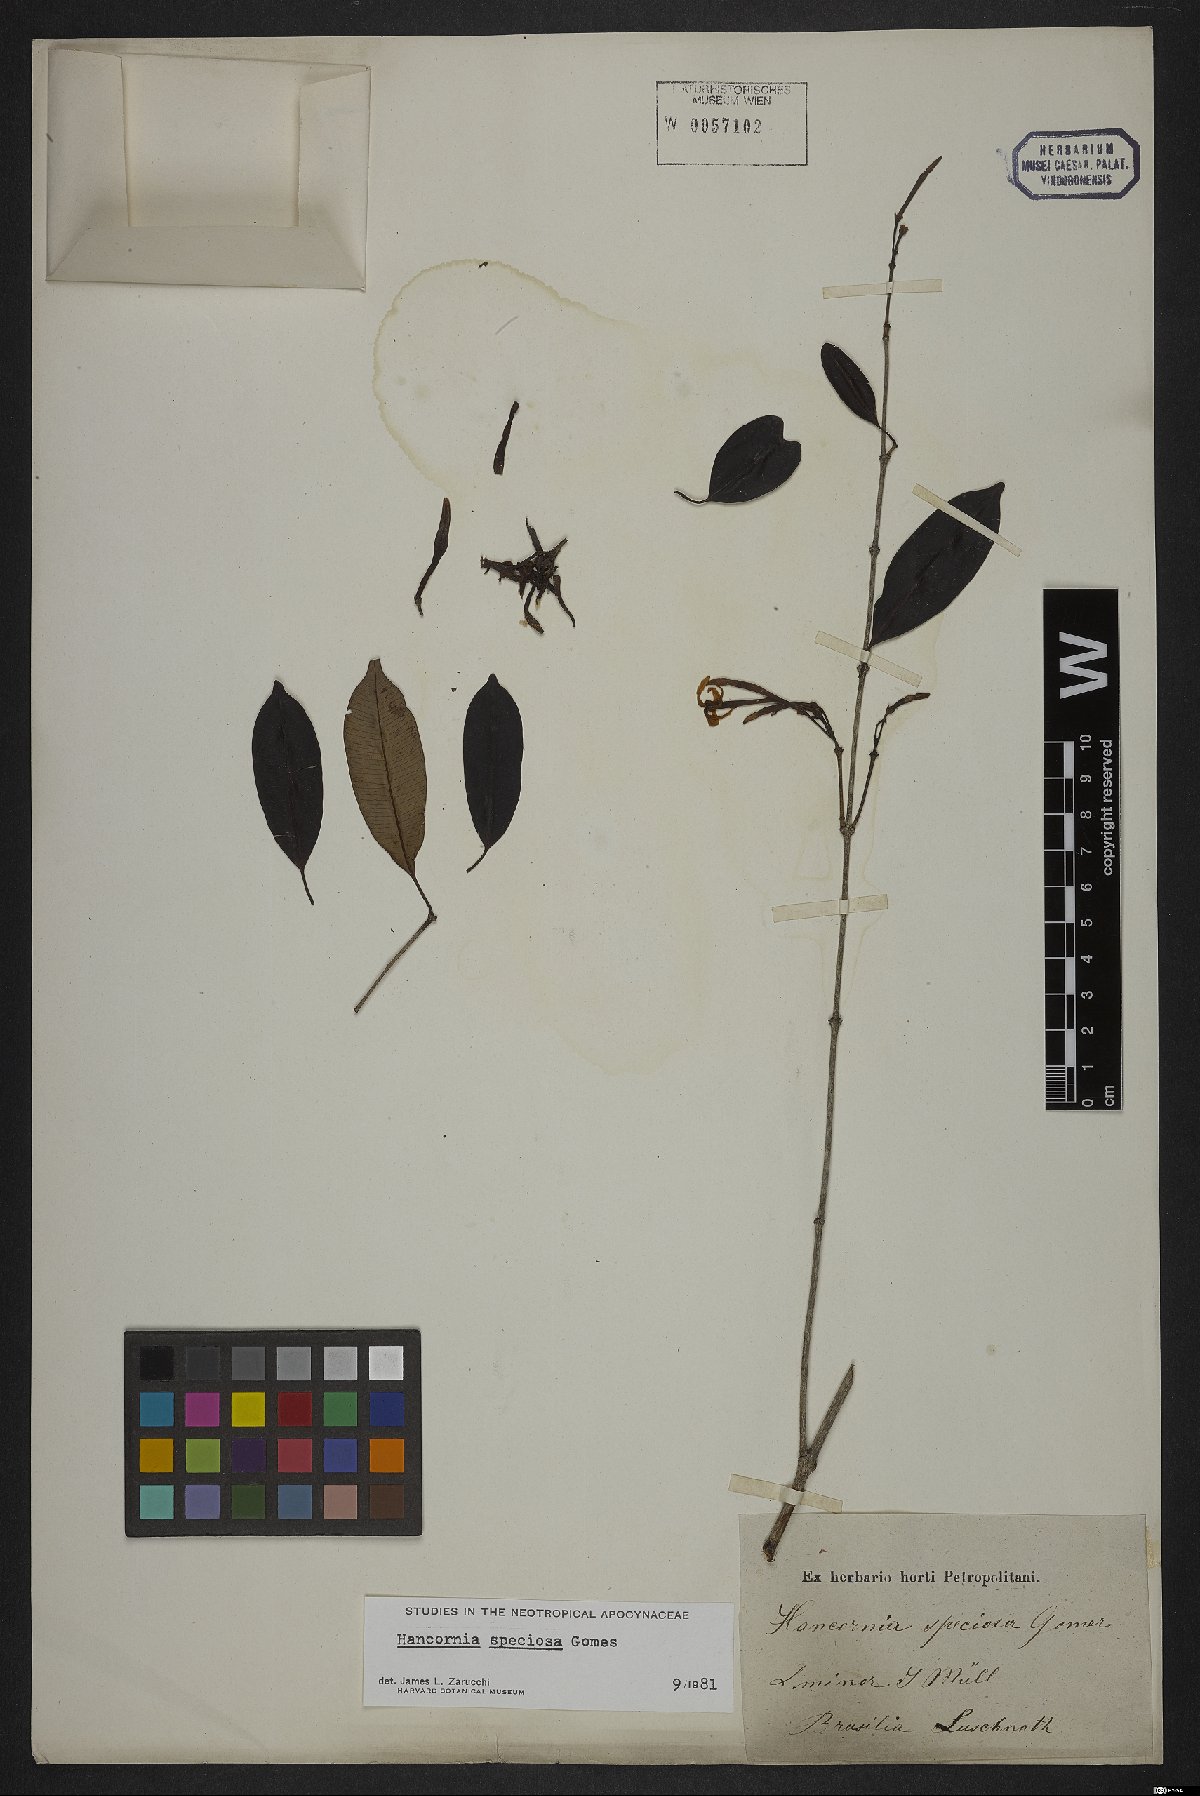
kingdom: Plantae
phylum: Tracheophyta
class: Magnoliopsida
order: Gentianales
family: Apocynaceae
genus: Hancornia
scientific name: Hancornia speciosa
